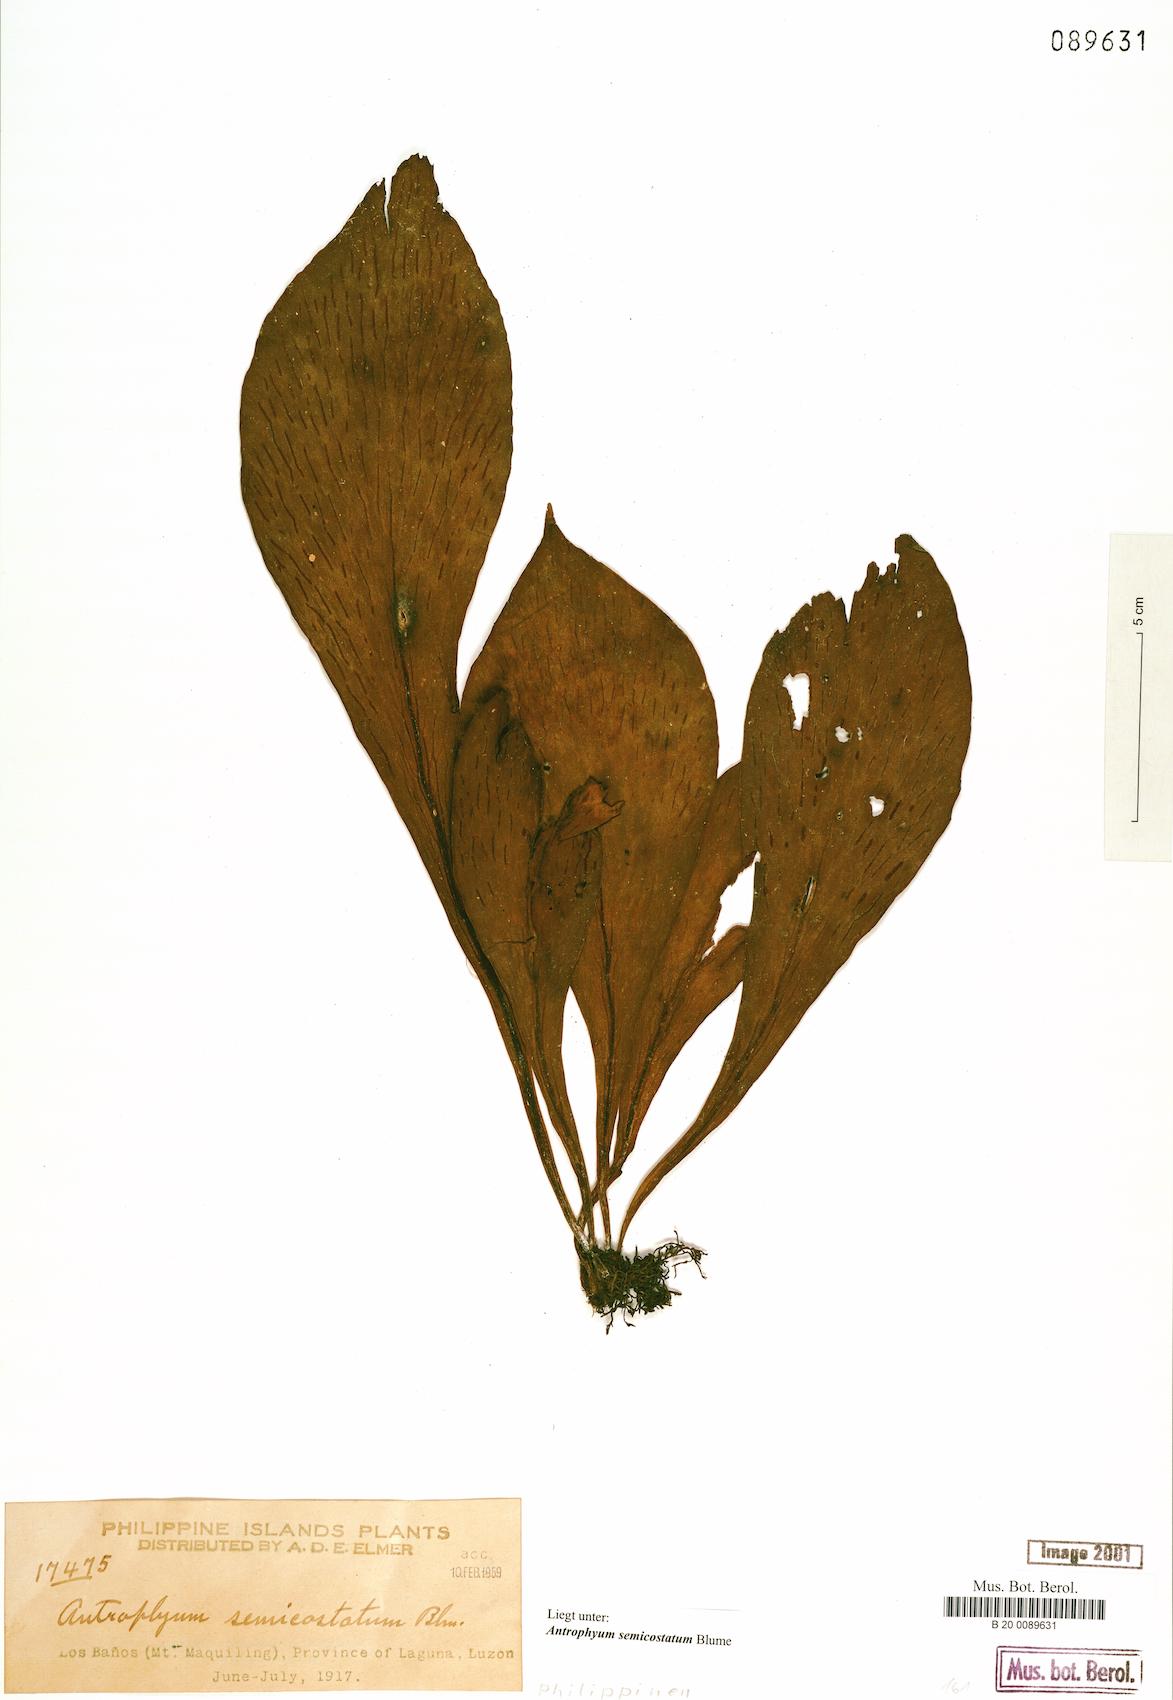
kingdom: Plantae
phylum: Tracheophyta
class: Polypodiopsida
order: Polypodiales
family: Pteridaceae
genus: Antrophyum
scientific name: Antrophyum semicostatum
